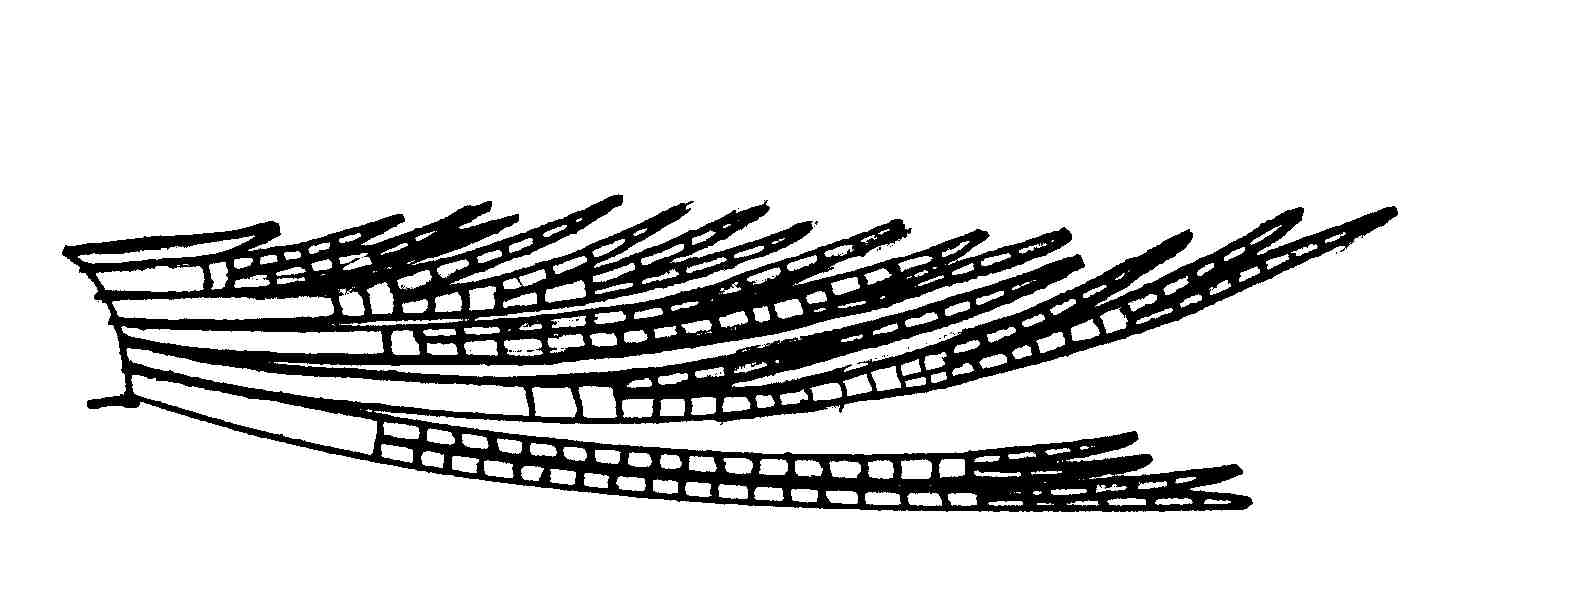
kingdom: Animalia
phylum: Chordata
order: Perciformes
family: Gobiidae
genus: Sueviota
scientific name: Sueviota lachneri
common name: Ernie's sueviota
